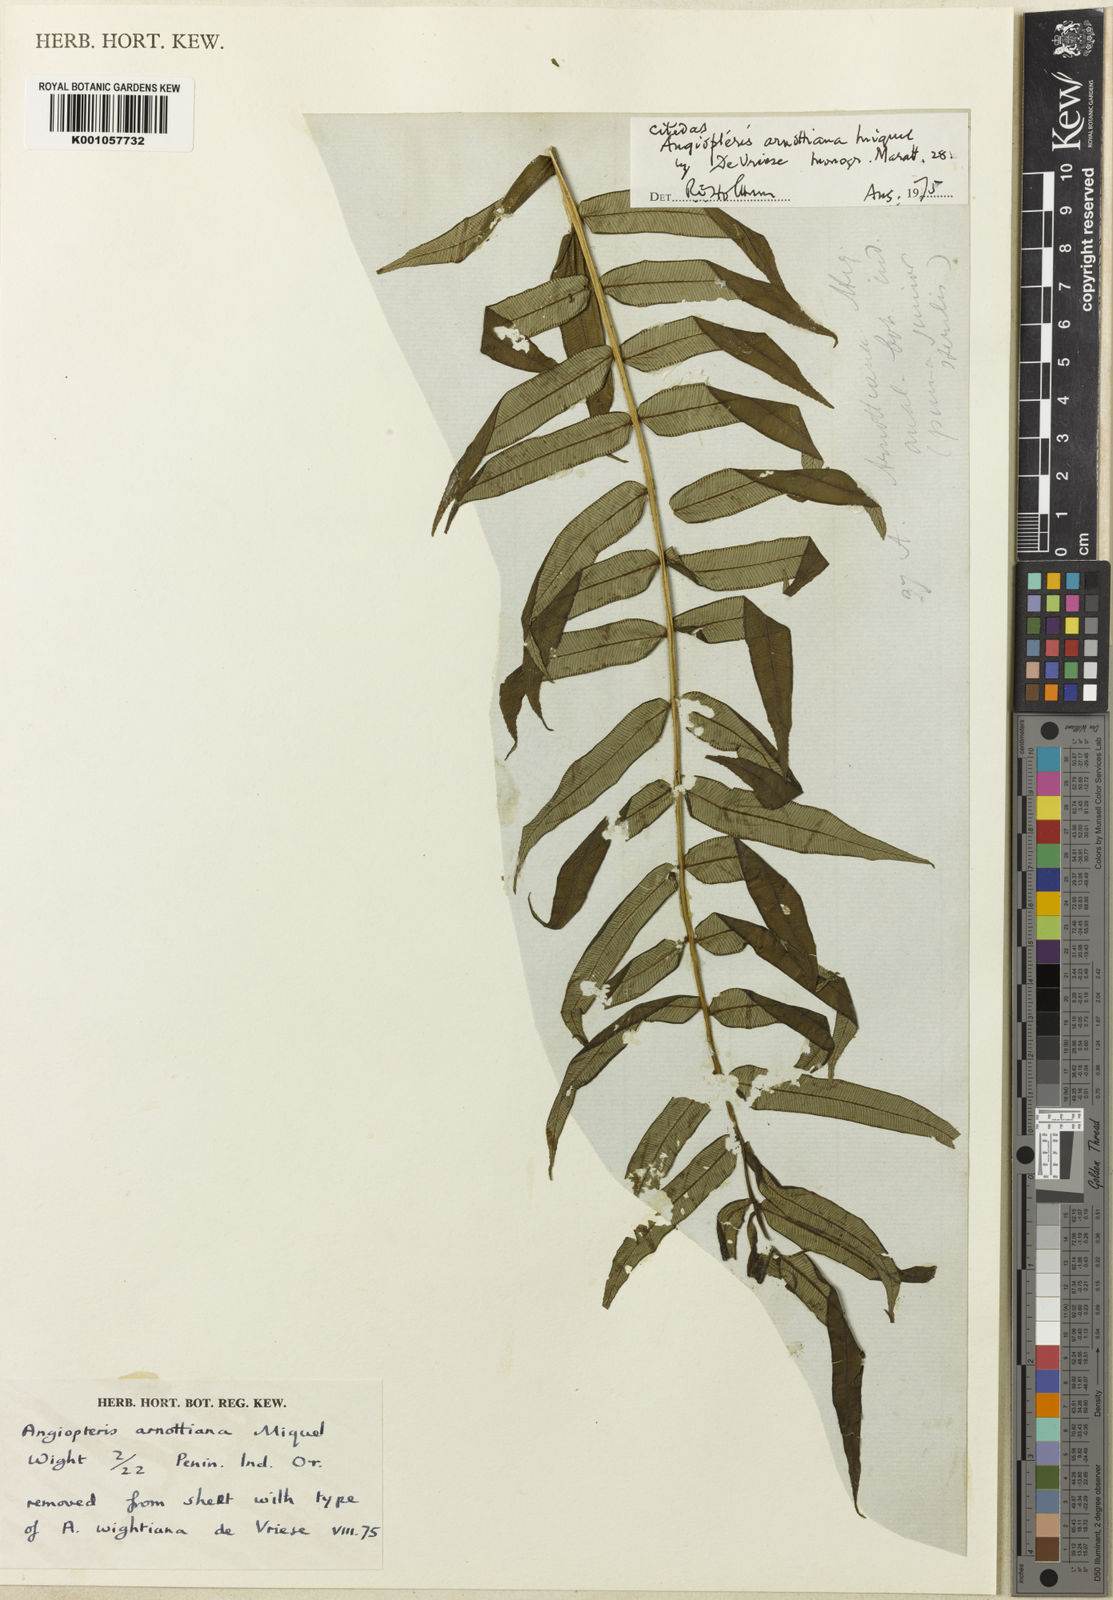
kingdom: Plantae
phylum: Tracheophyta
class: Polypodiopsida
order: Marattiales
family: Marattiaceae
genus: Angiopteris
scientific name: Angiopteris crassipes
